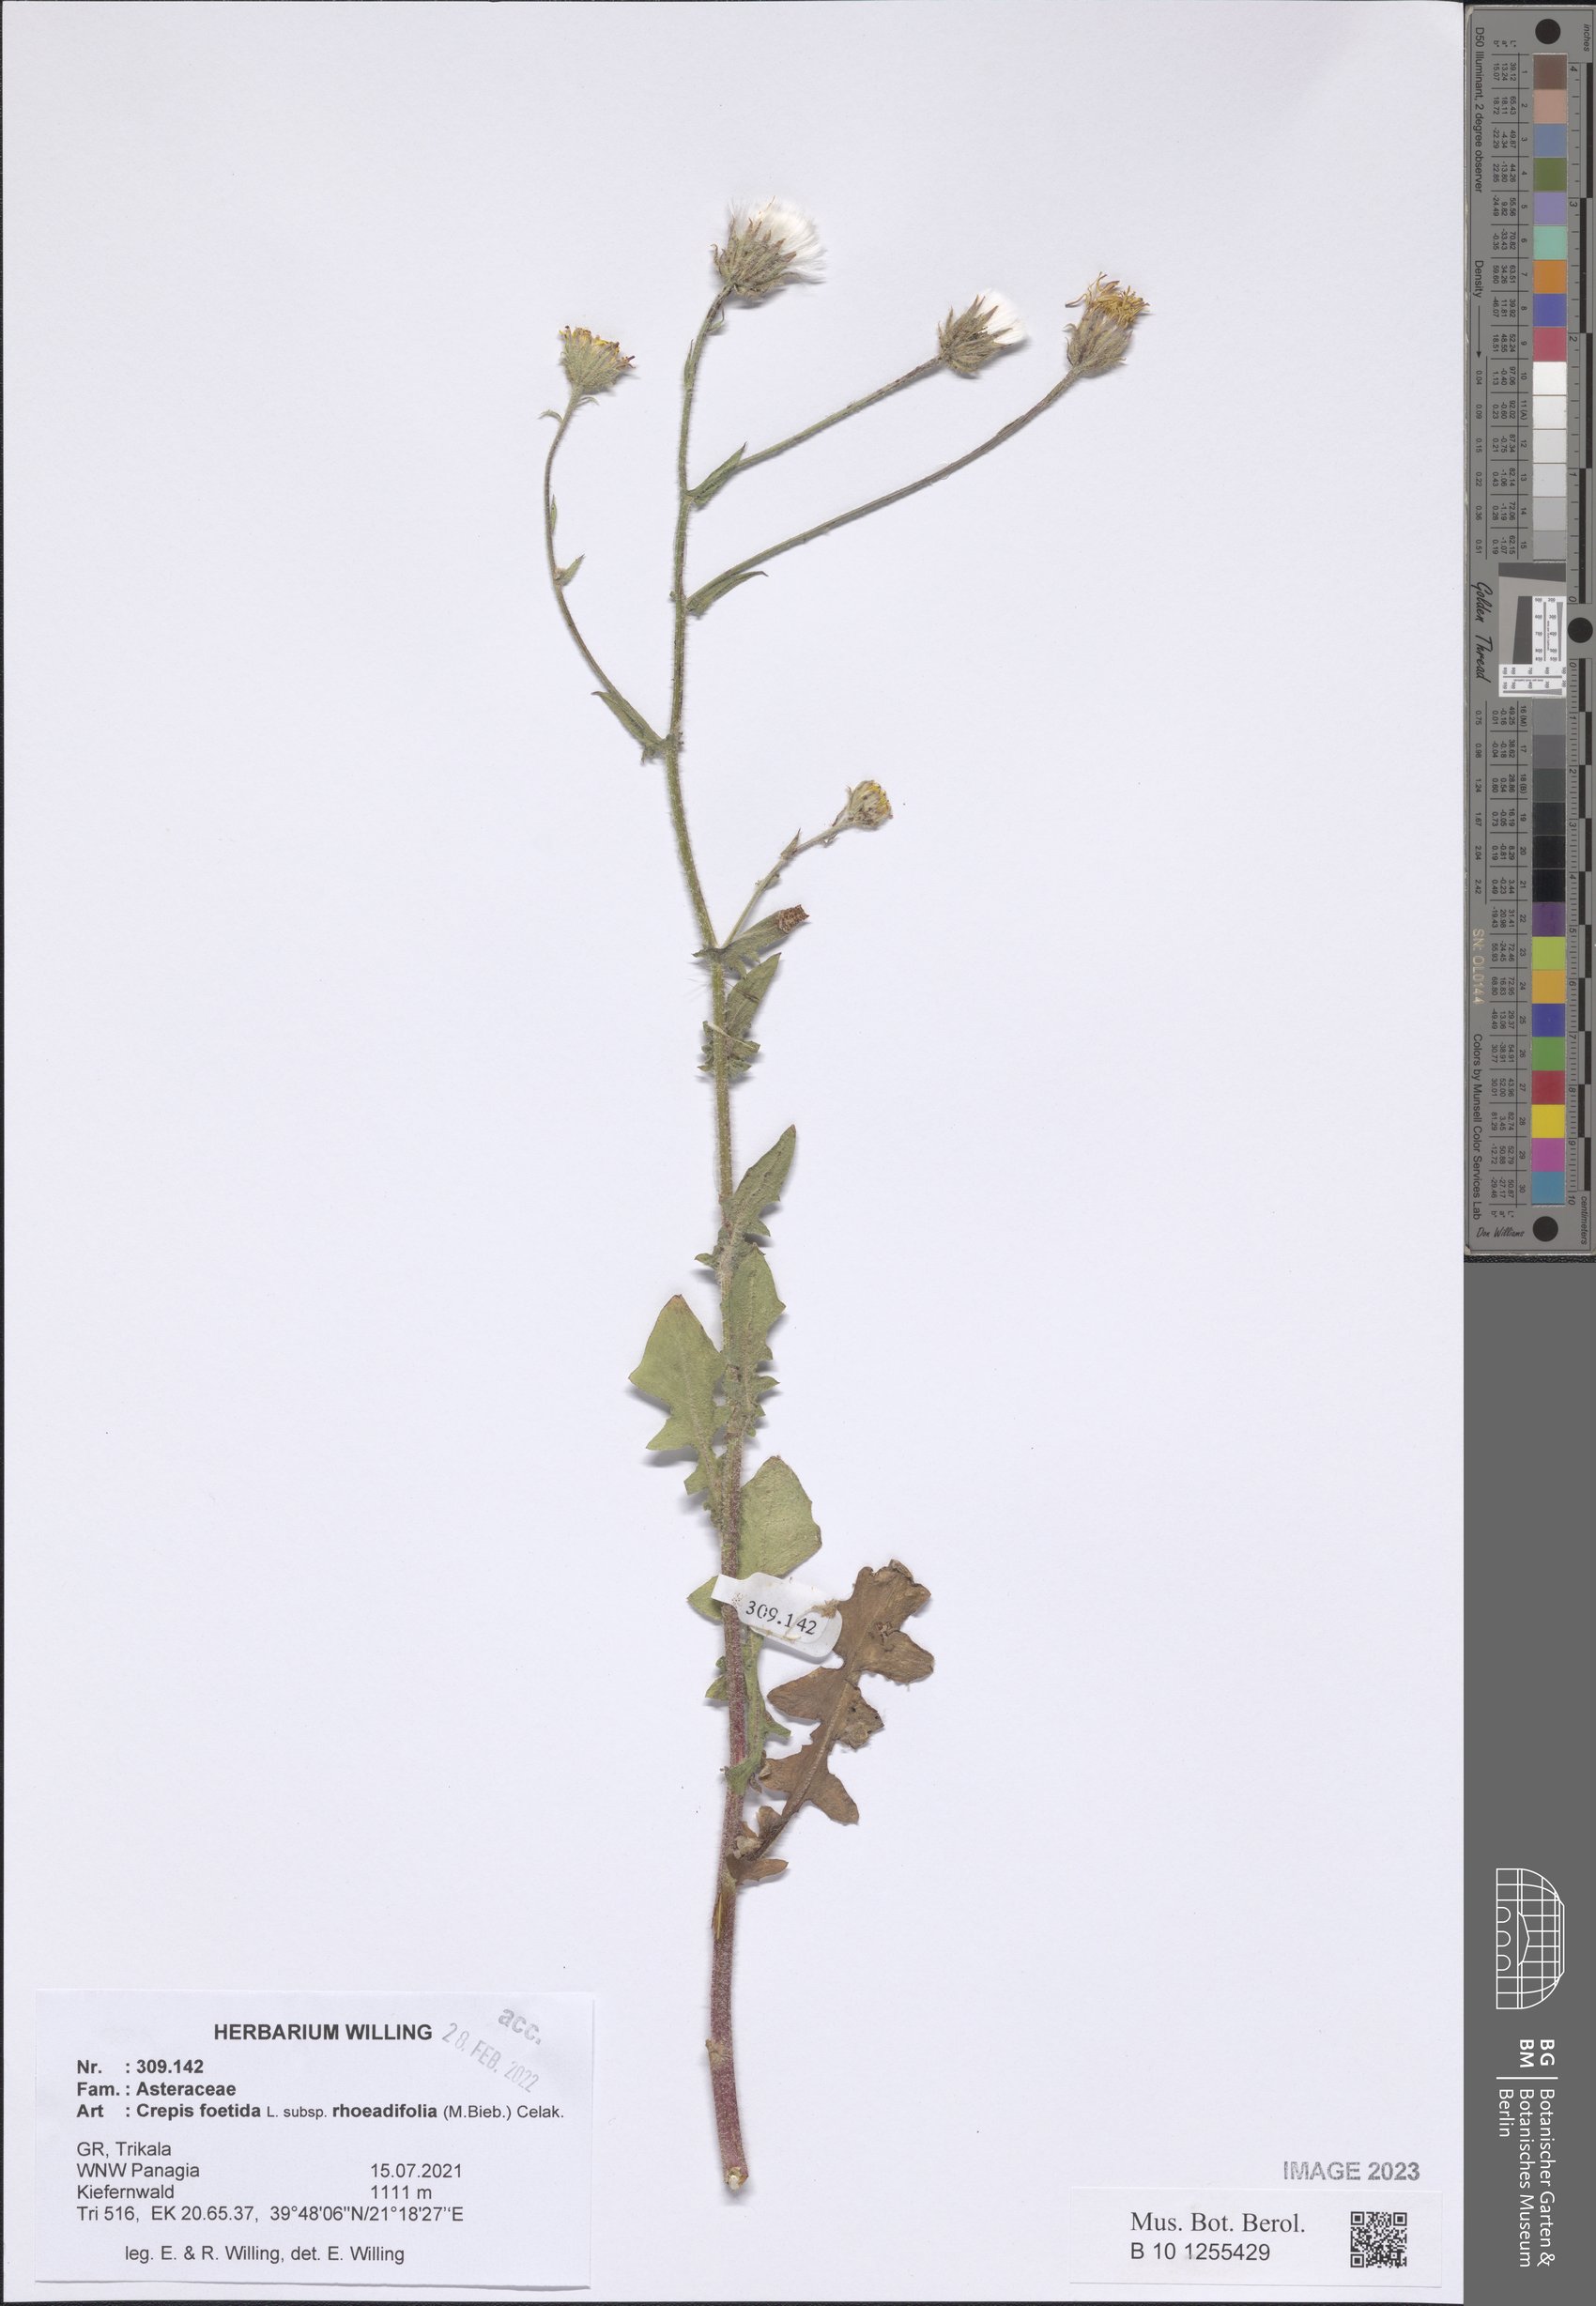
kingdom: Plantae
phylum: Tracheophyta
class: Magnoliopsida
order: Asterales
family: Asteraceae
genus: Crepis
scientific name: Crepis foetida
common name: Stinking hawk's-beard
